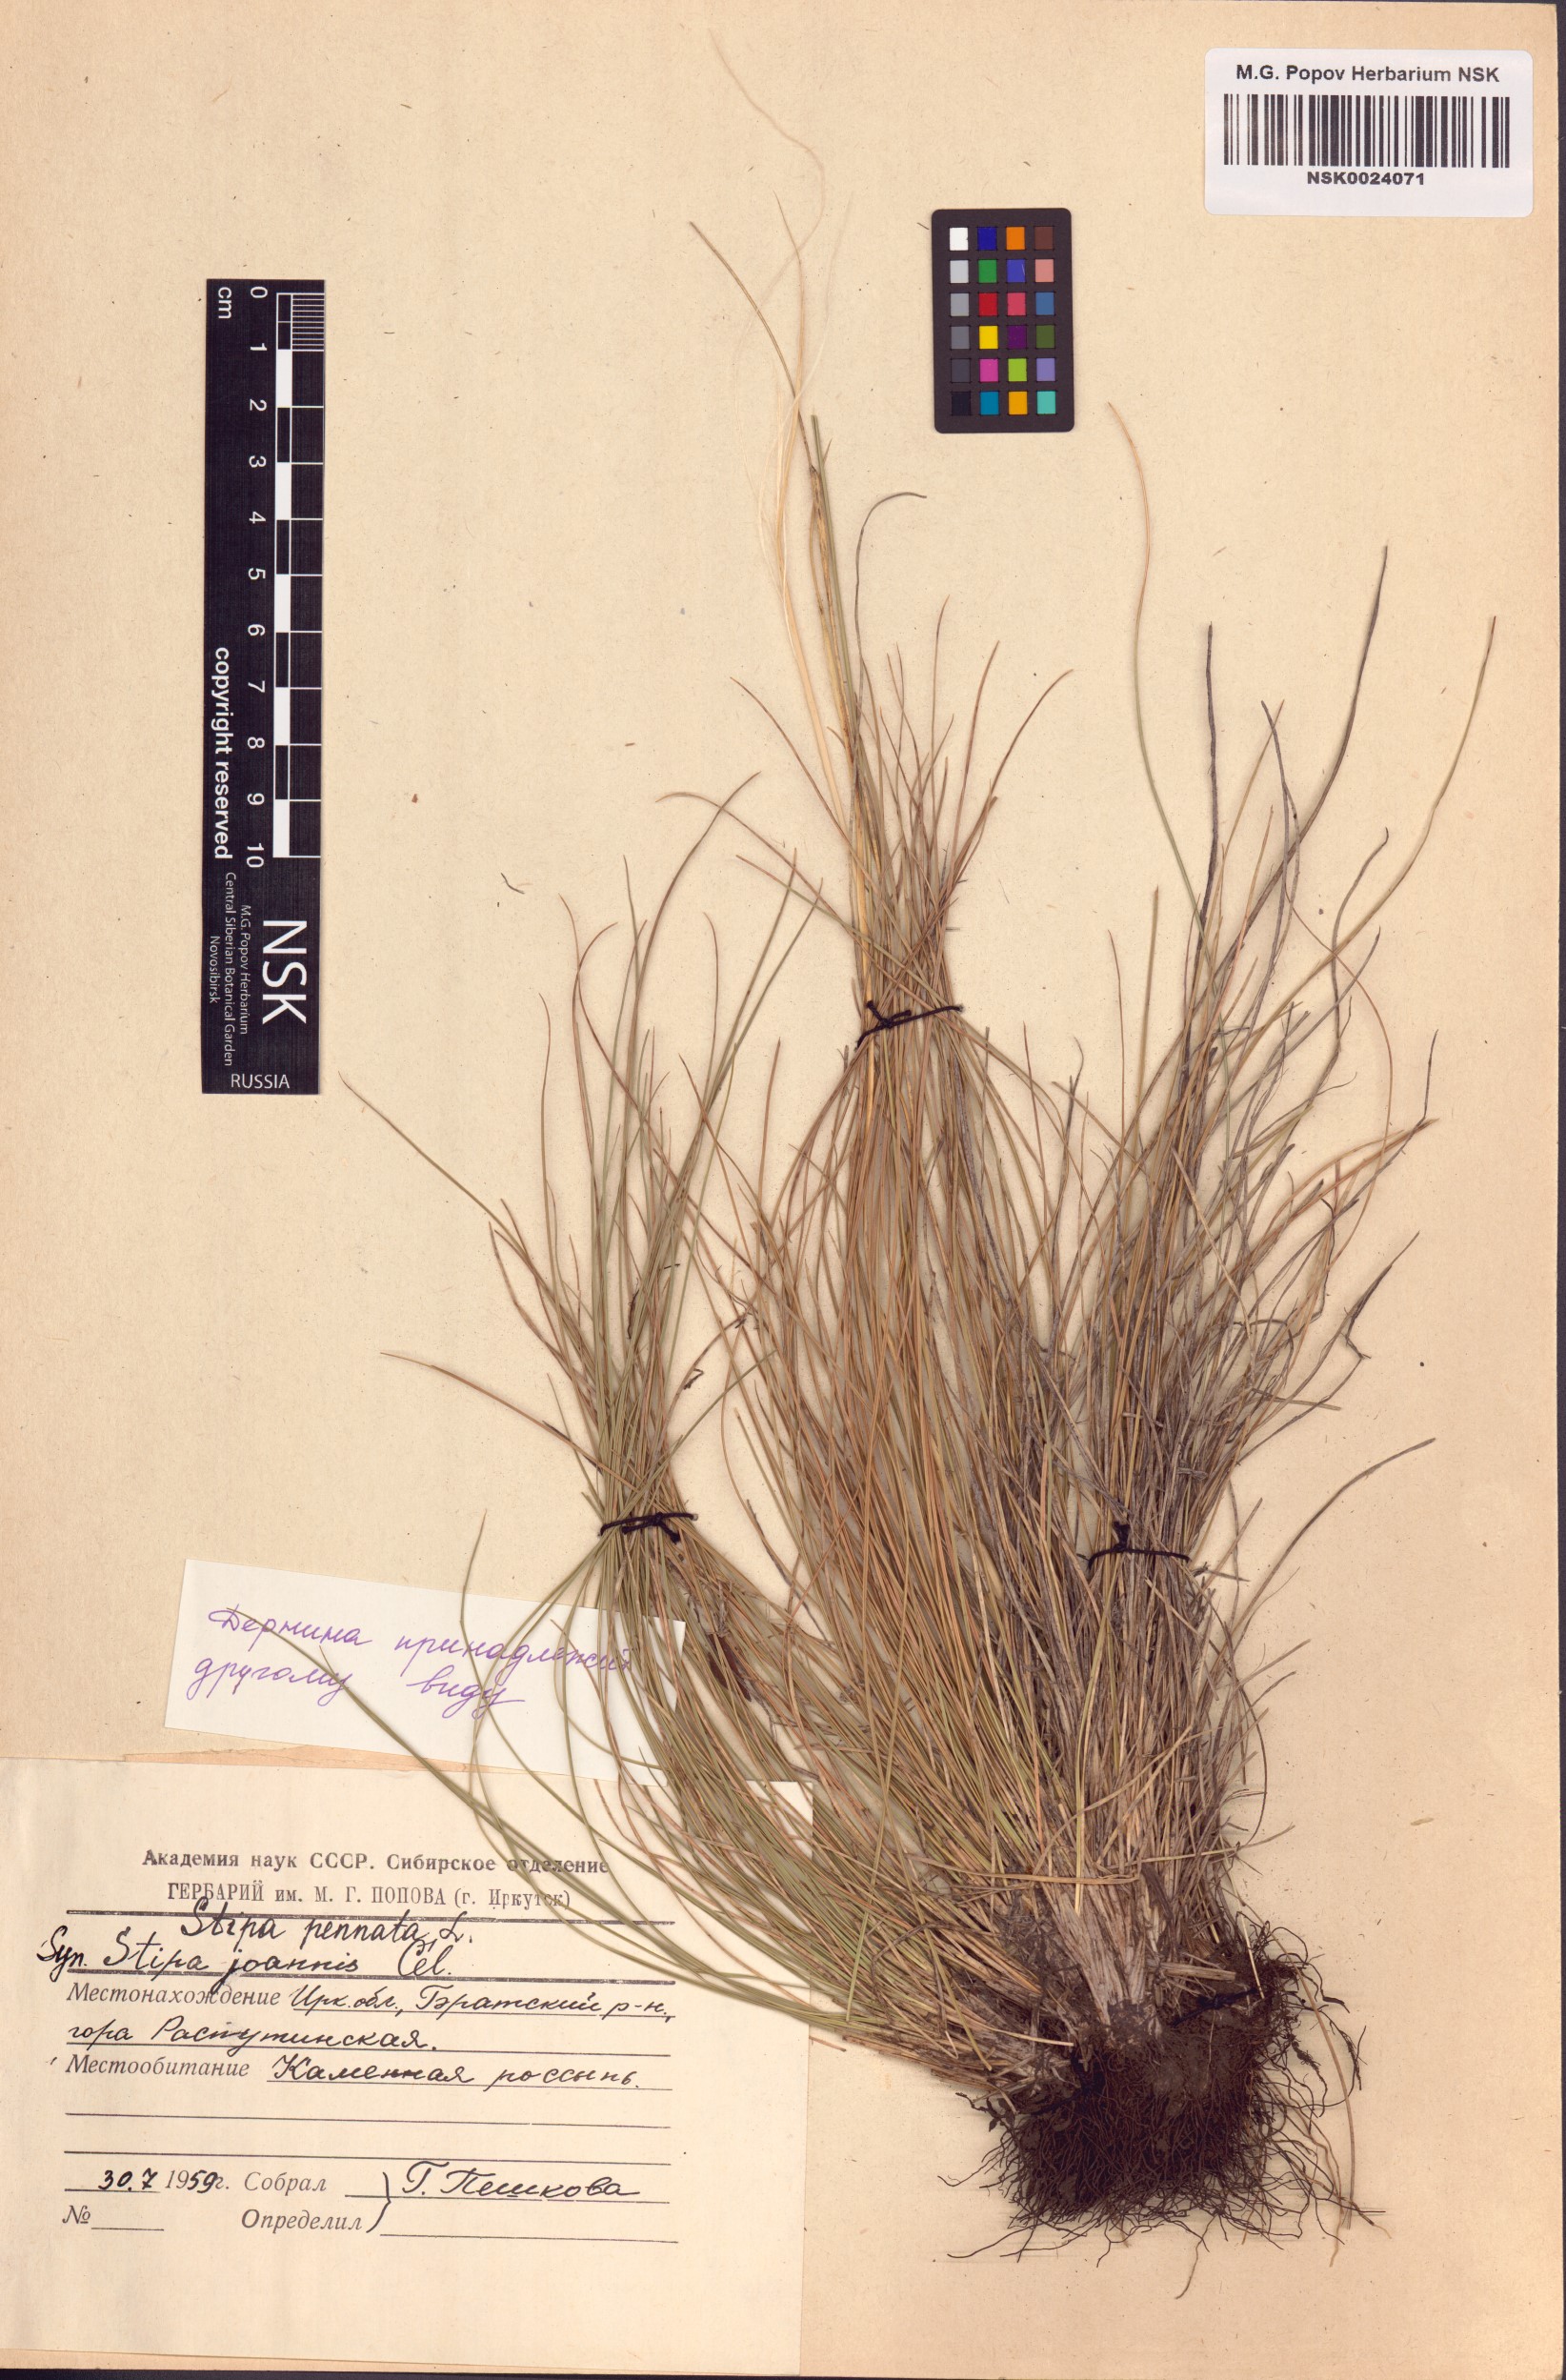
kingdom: Plantae
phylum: Tracheophyta
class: Liliopsida
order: Poales
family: Poaceae
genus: Stipa
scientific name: Stipa pennata
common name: European feather grass
